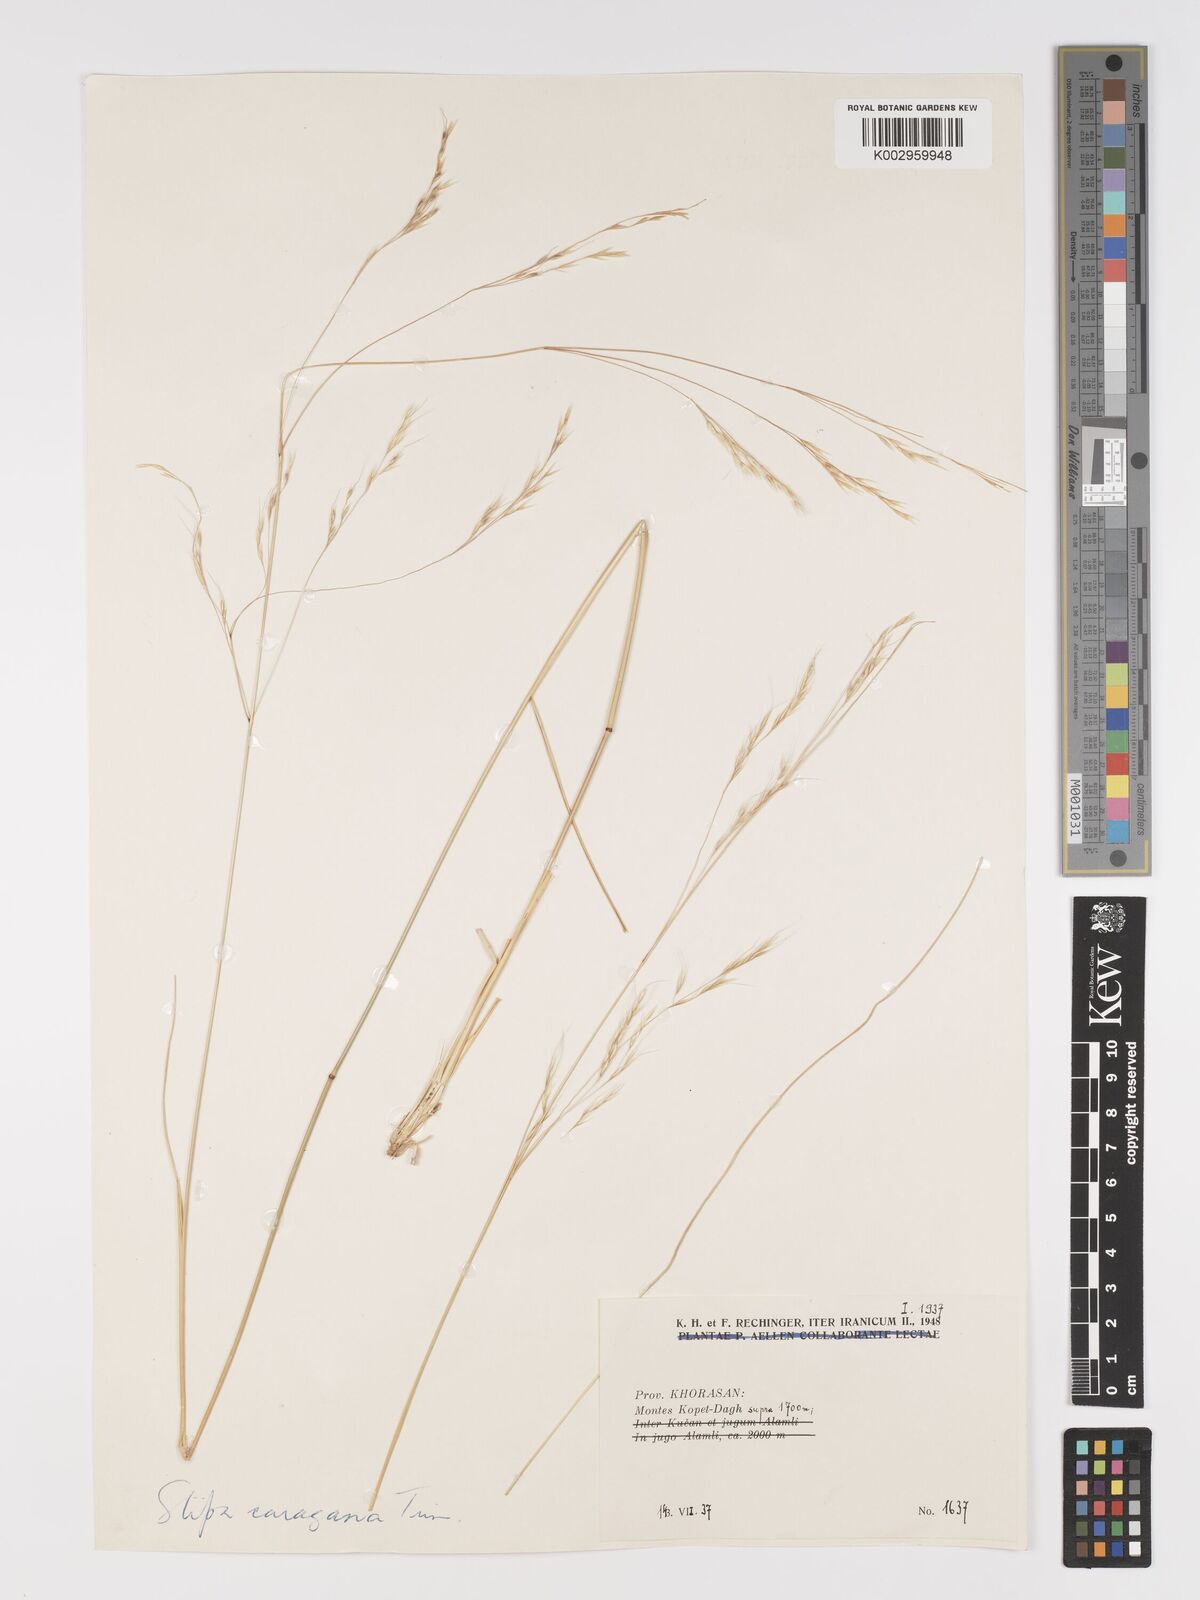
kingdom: Plantae
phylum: Tracheophyta
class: Liliopsida
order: Poales
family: Poaceae
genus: Stipa
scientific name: Stipa conferta
